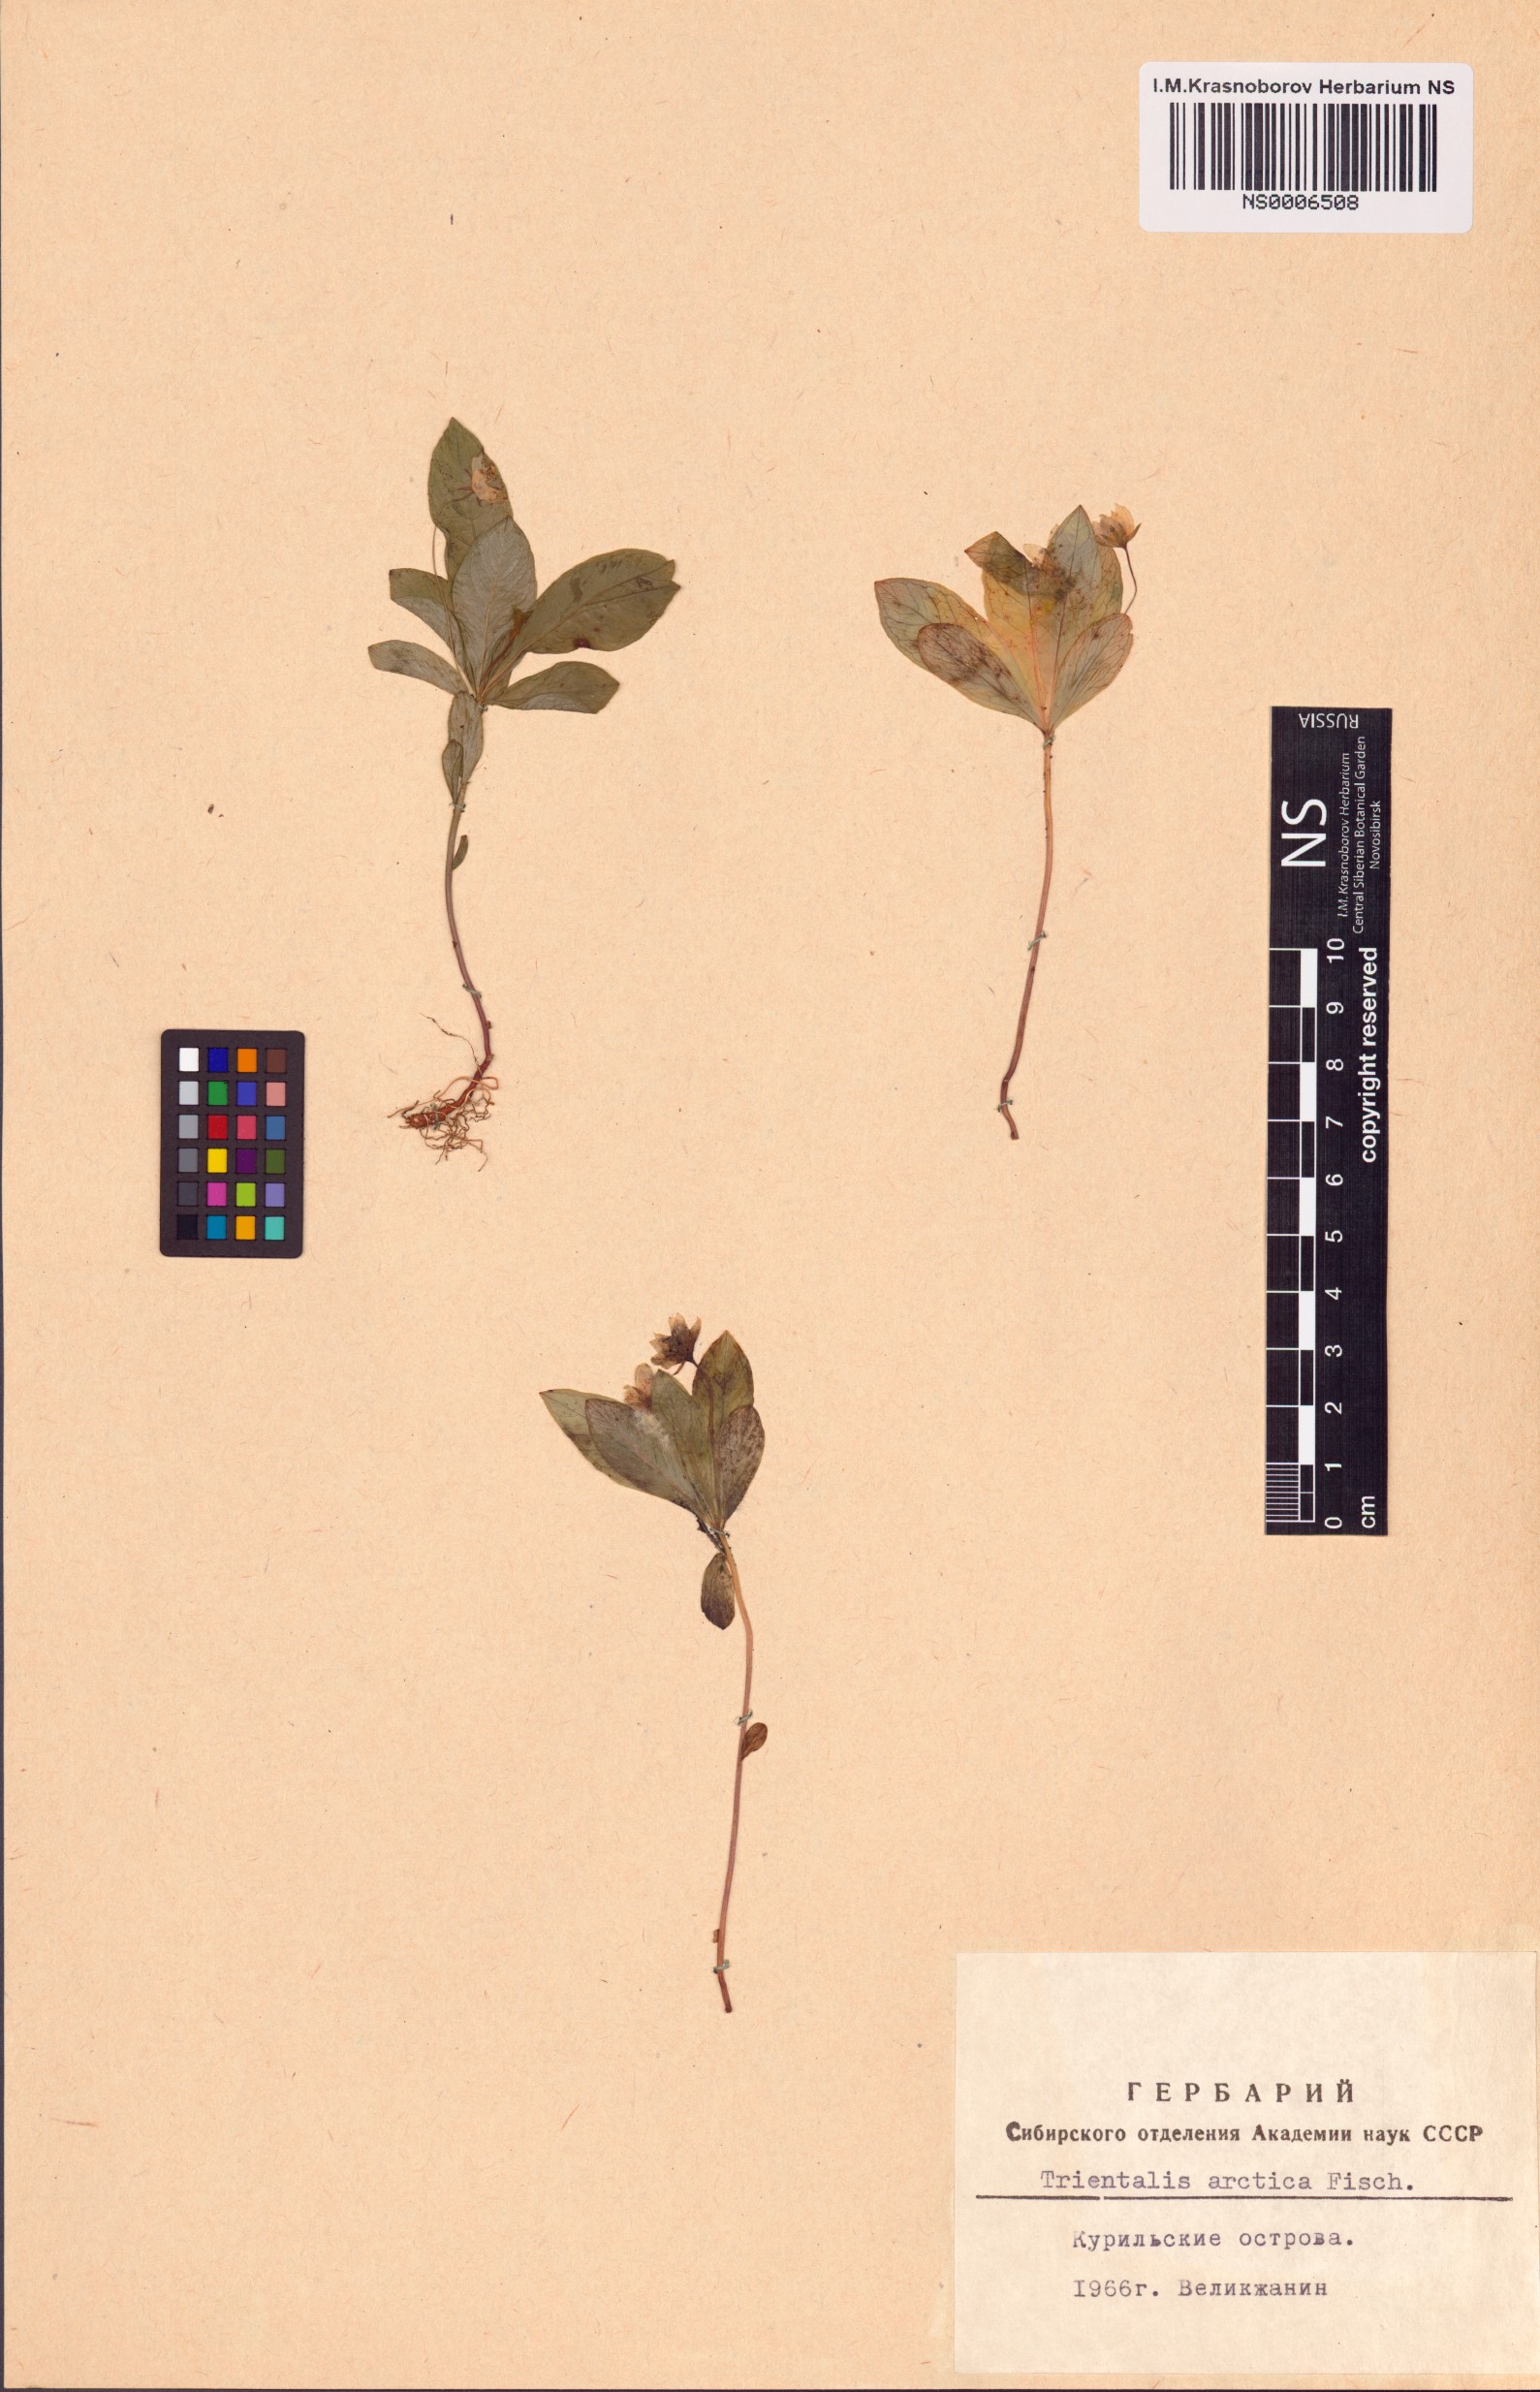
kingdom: Plantae
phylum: Tracheophyta
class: Magnoliopsida
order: Ericales
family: Primulaceae
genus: Lysimachia
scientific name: Lysimachia europaea
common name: Arctic starflower
